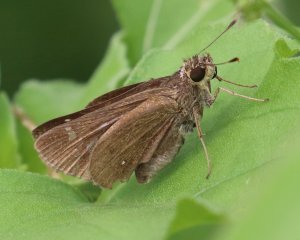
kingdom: Animalia
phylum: Arthropoda
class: Insecta
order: Lepidoptera
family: Hesperiidae
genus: Decinea
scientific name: Decinea percosius
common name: Double-dotted Skipper
